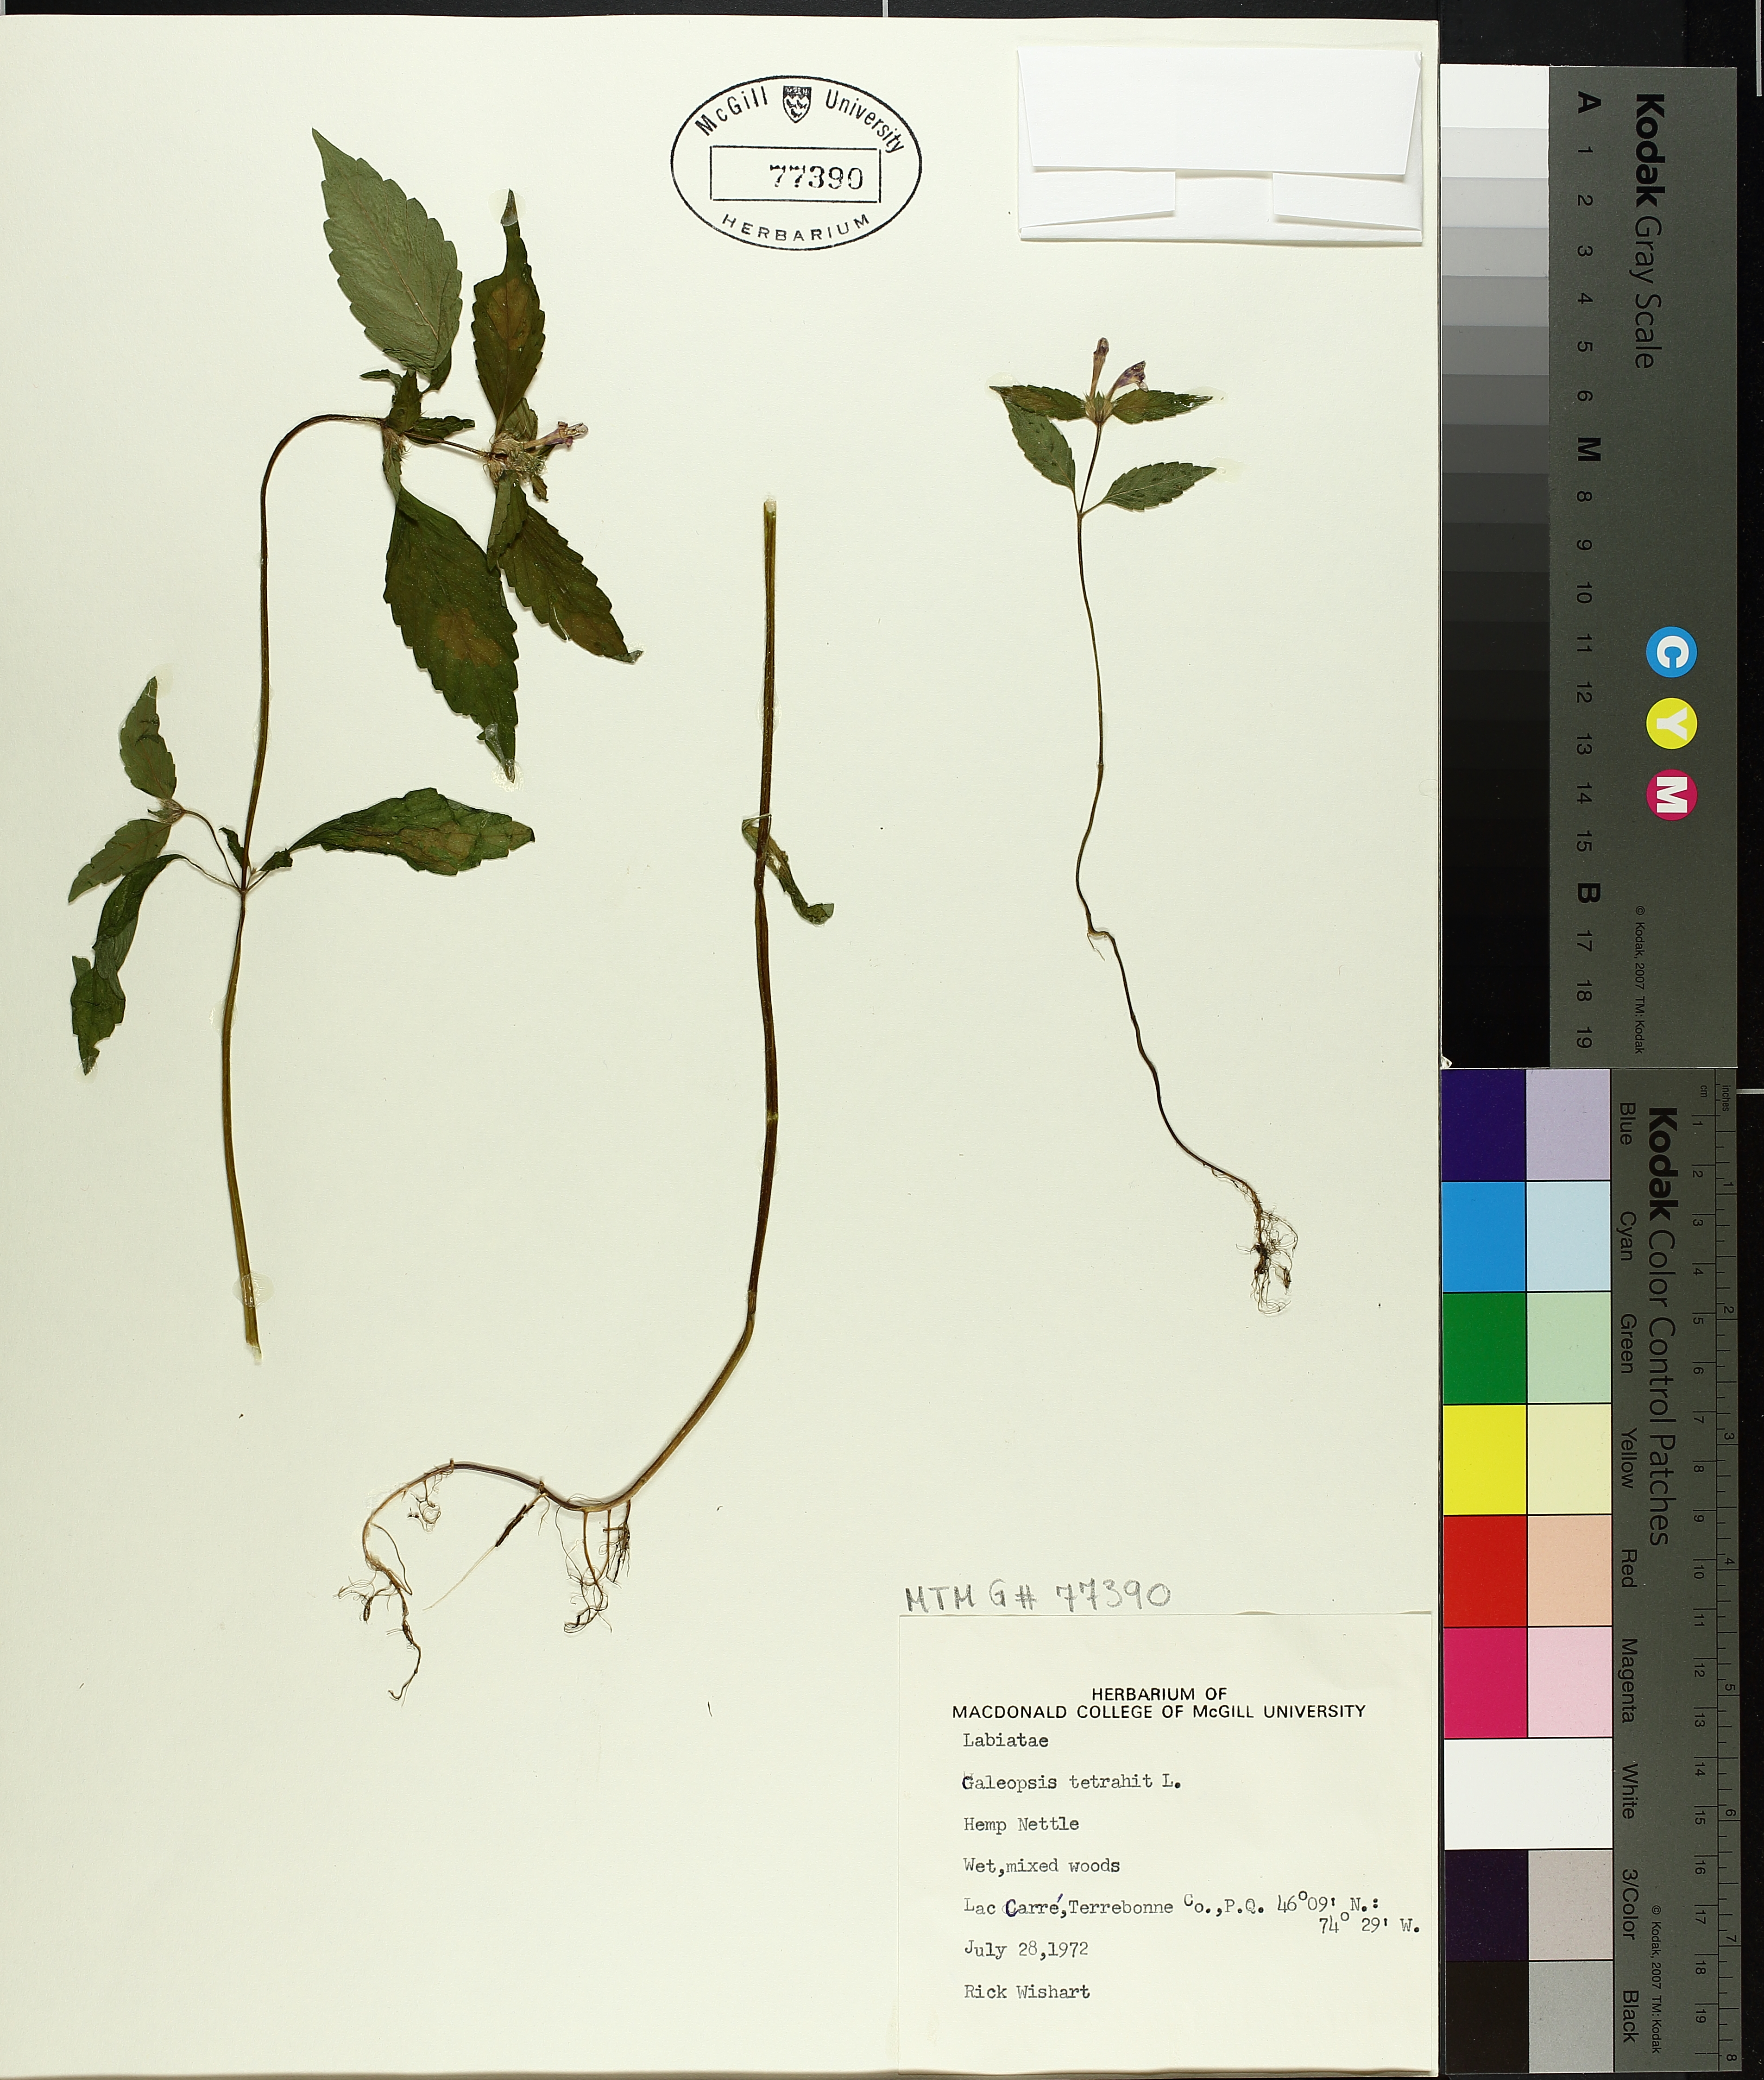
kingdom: Plantae
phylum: Tracheophyta
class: Magnoliopsida
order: Lamiales
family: Lamiaceae
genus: Galeopsis
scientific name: Galeopsis tetrahit
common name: Common hemp-nettle
